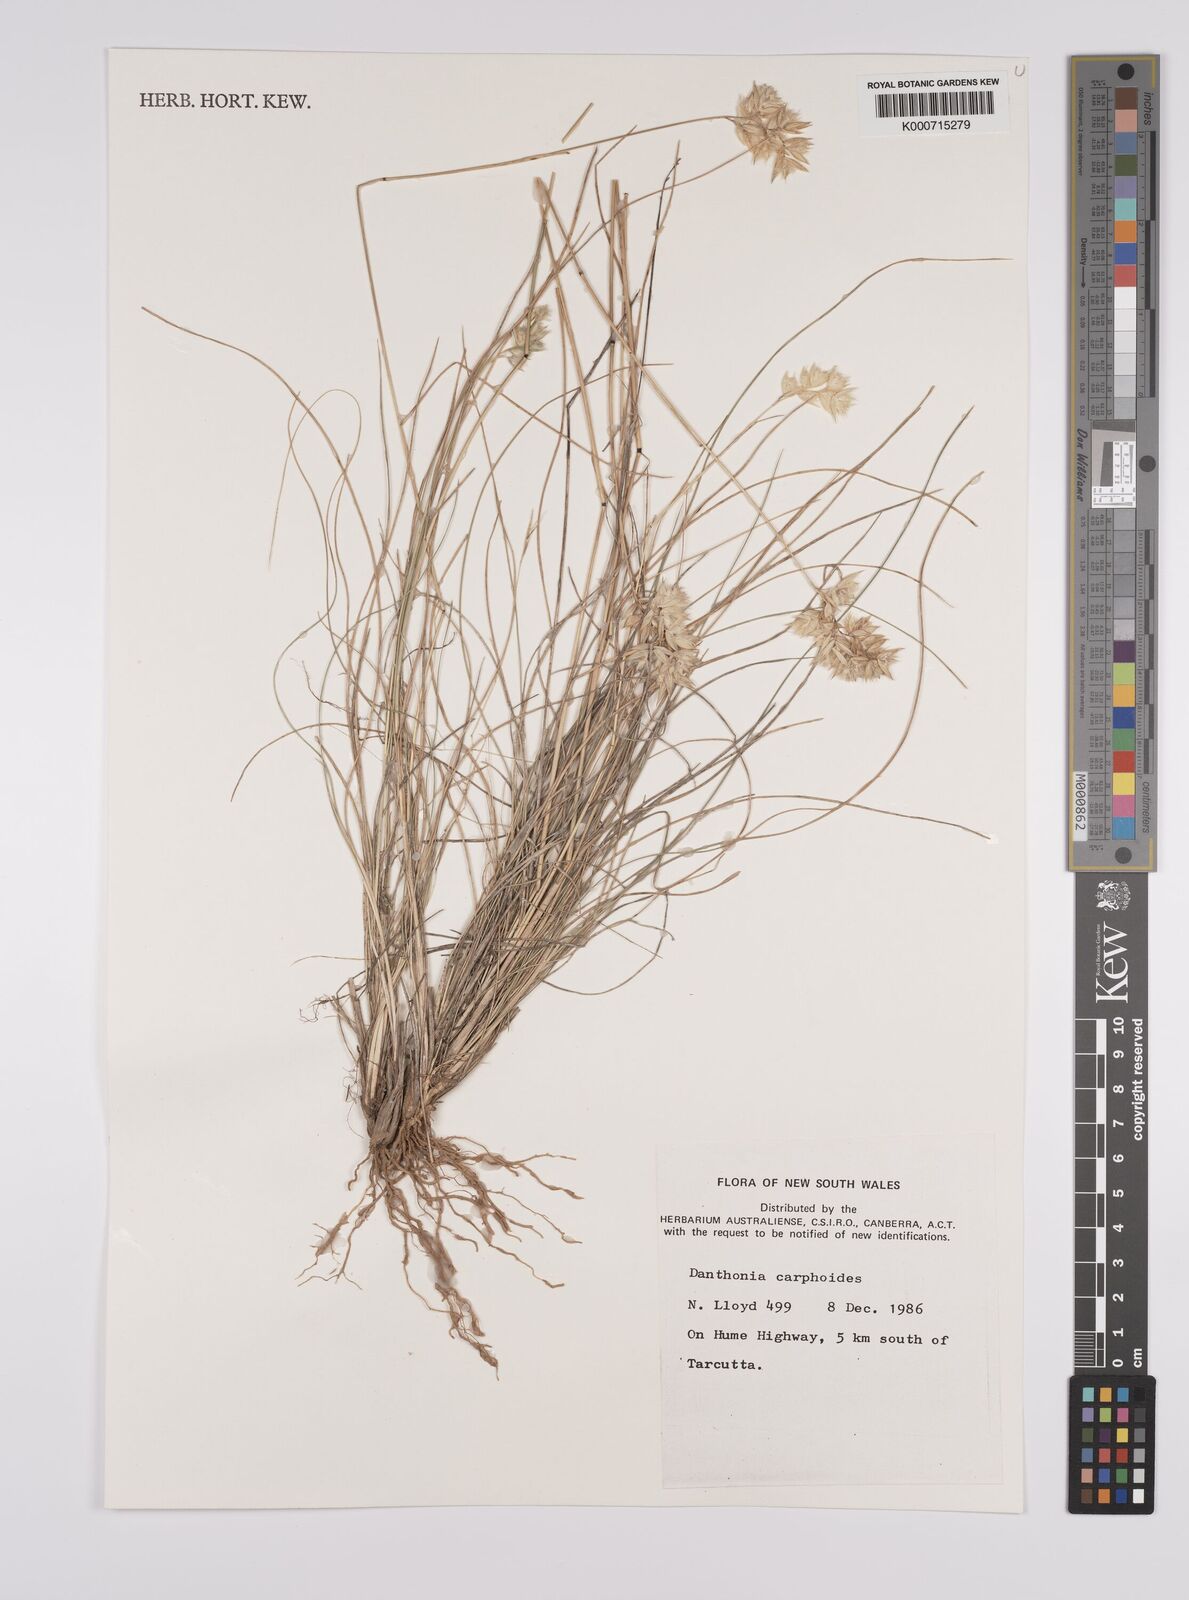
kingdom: Plantae
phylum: Tracheophyta
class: Liliopsida
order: Poales
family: Poaceae
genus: Rytidosperma
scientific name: Rytidosperma carphoides
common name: Short wallaby grass
